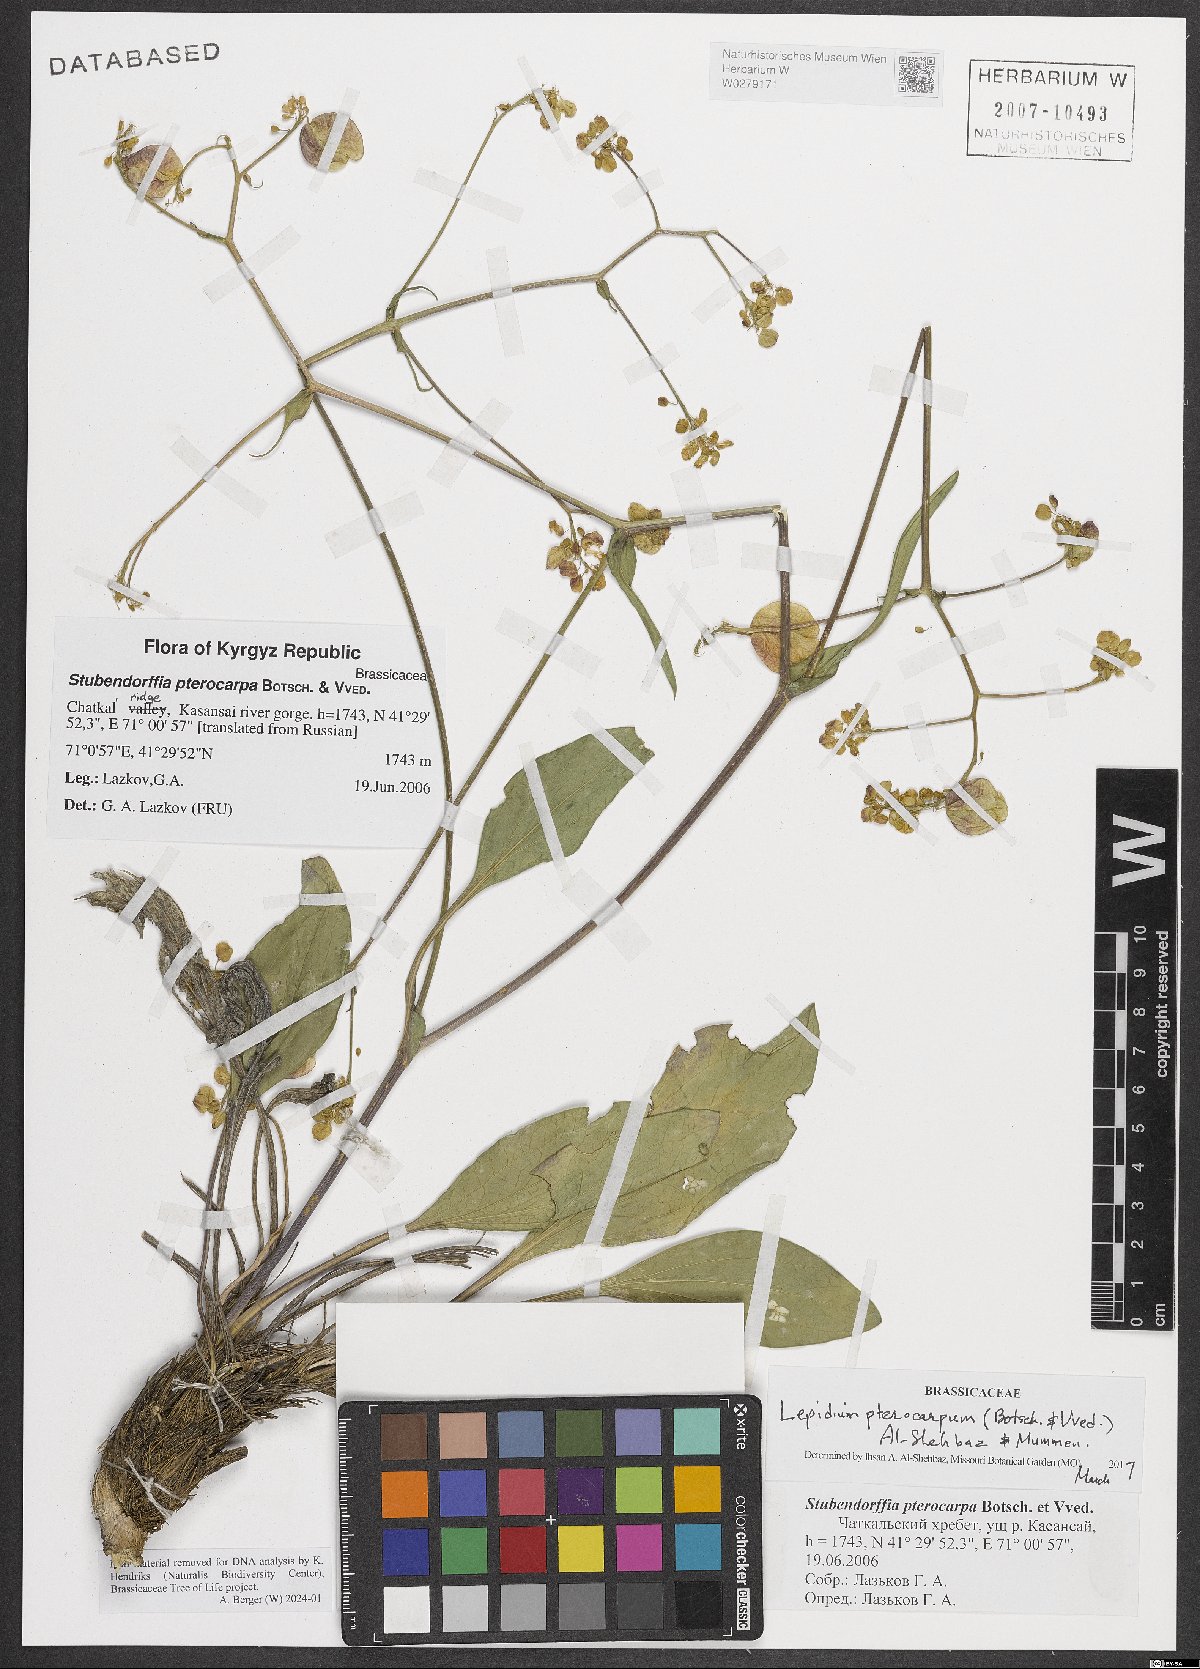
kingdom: Plantae
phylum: Tracheophyta
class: Magnoliopsida
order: Brassicales
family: Brassicaceae
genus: Lepidium
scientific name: Lepidium pterocarpum
